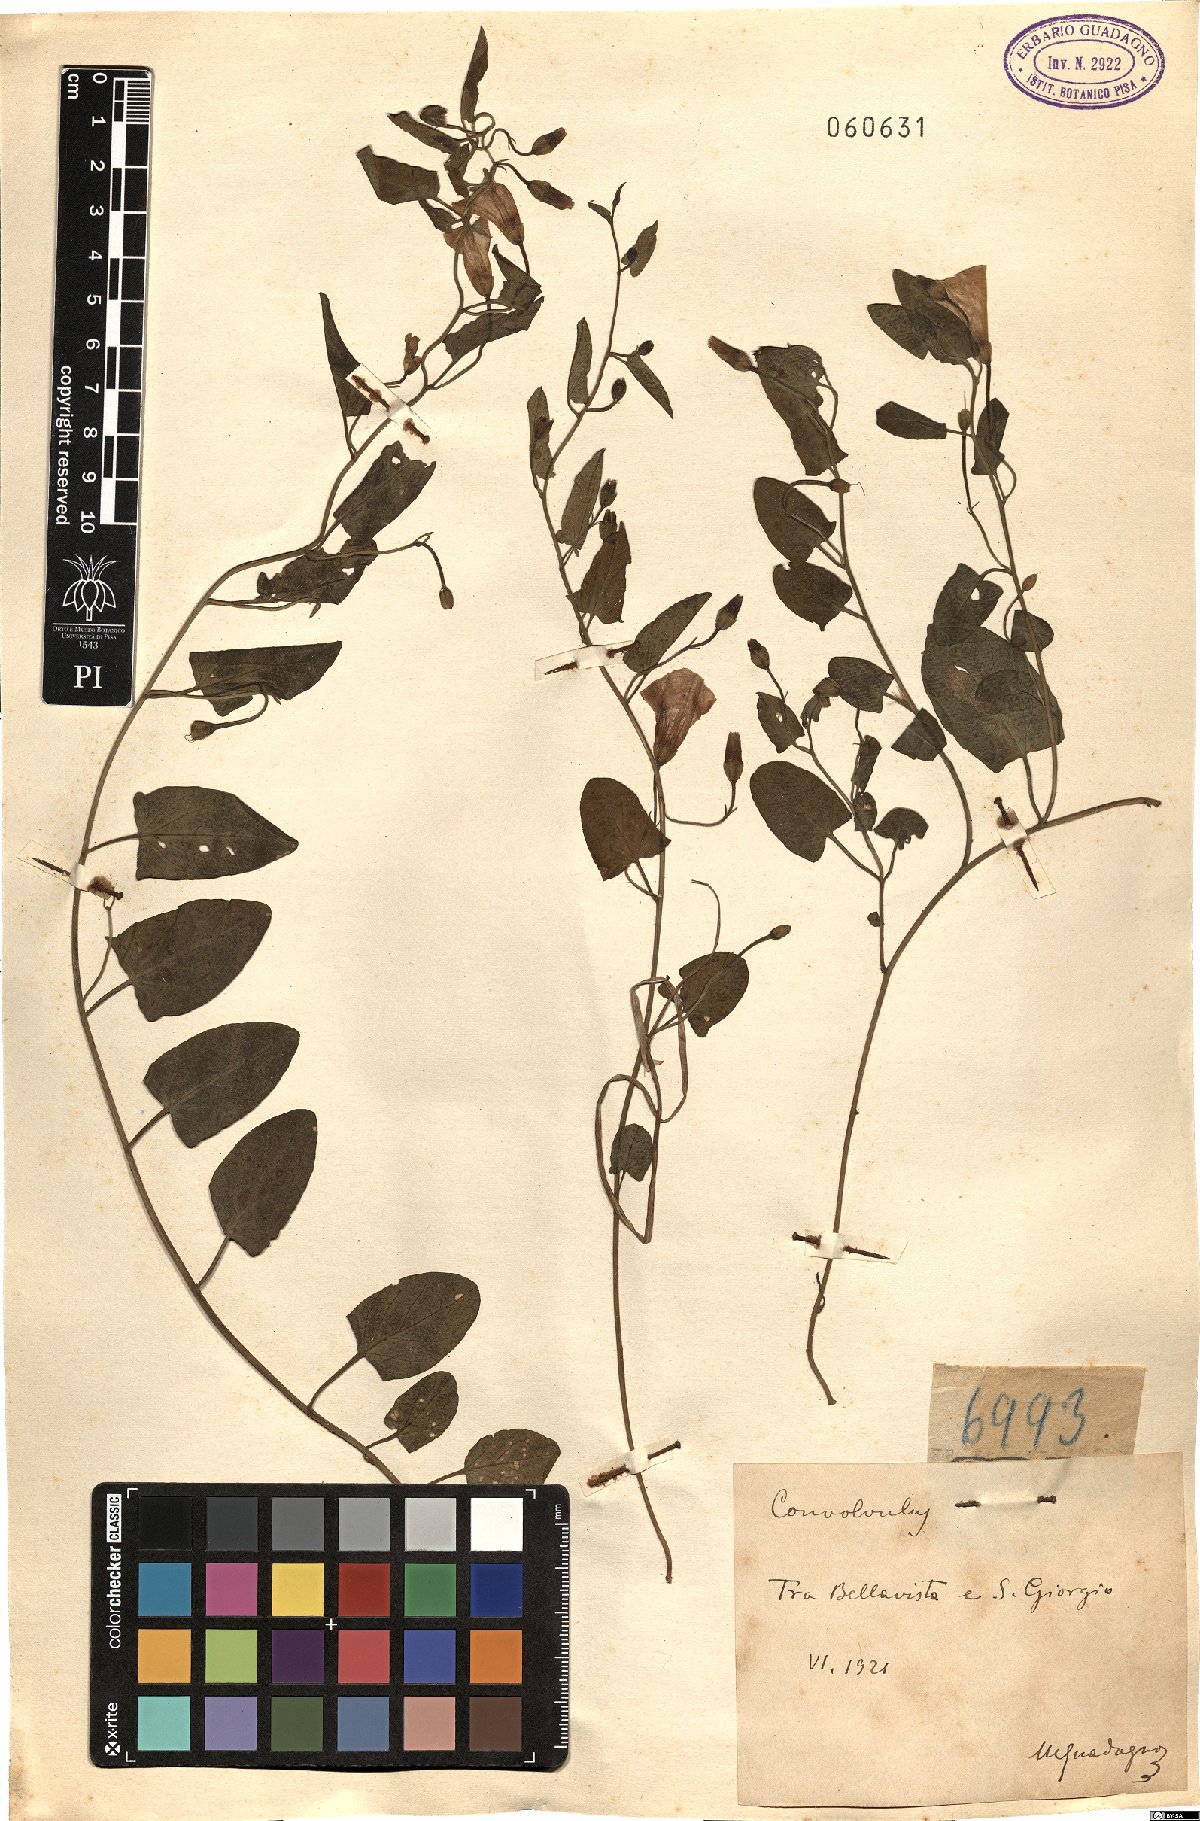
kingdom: Plantae
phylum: Tracheophyta
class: Magnoliopsida
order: Solanales
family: Convolvulaceae
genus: Convolvulus
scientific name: Convolvulus
